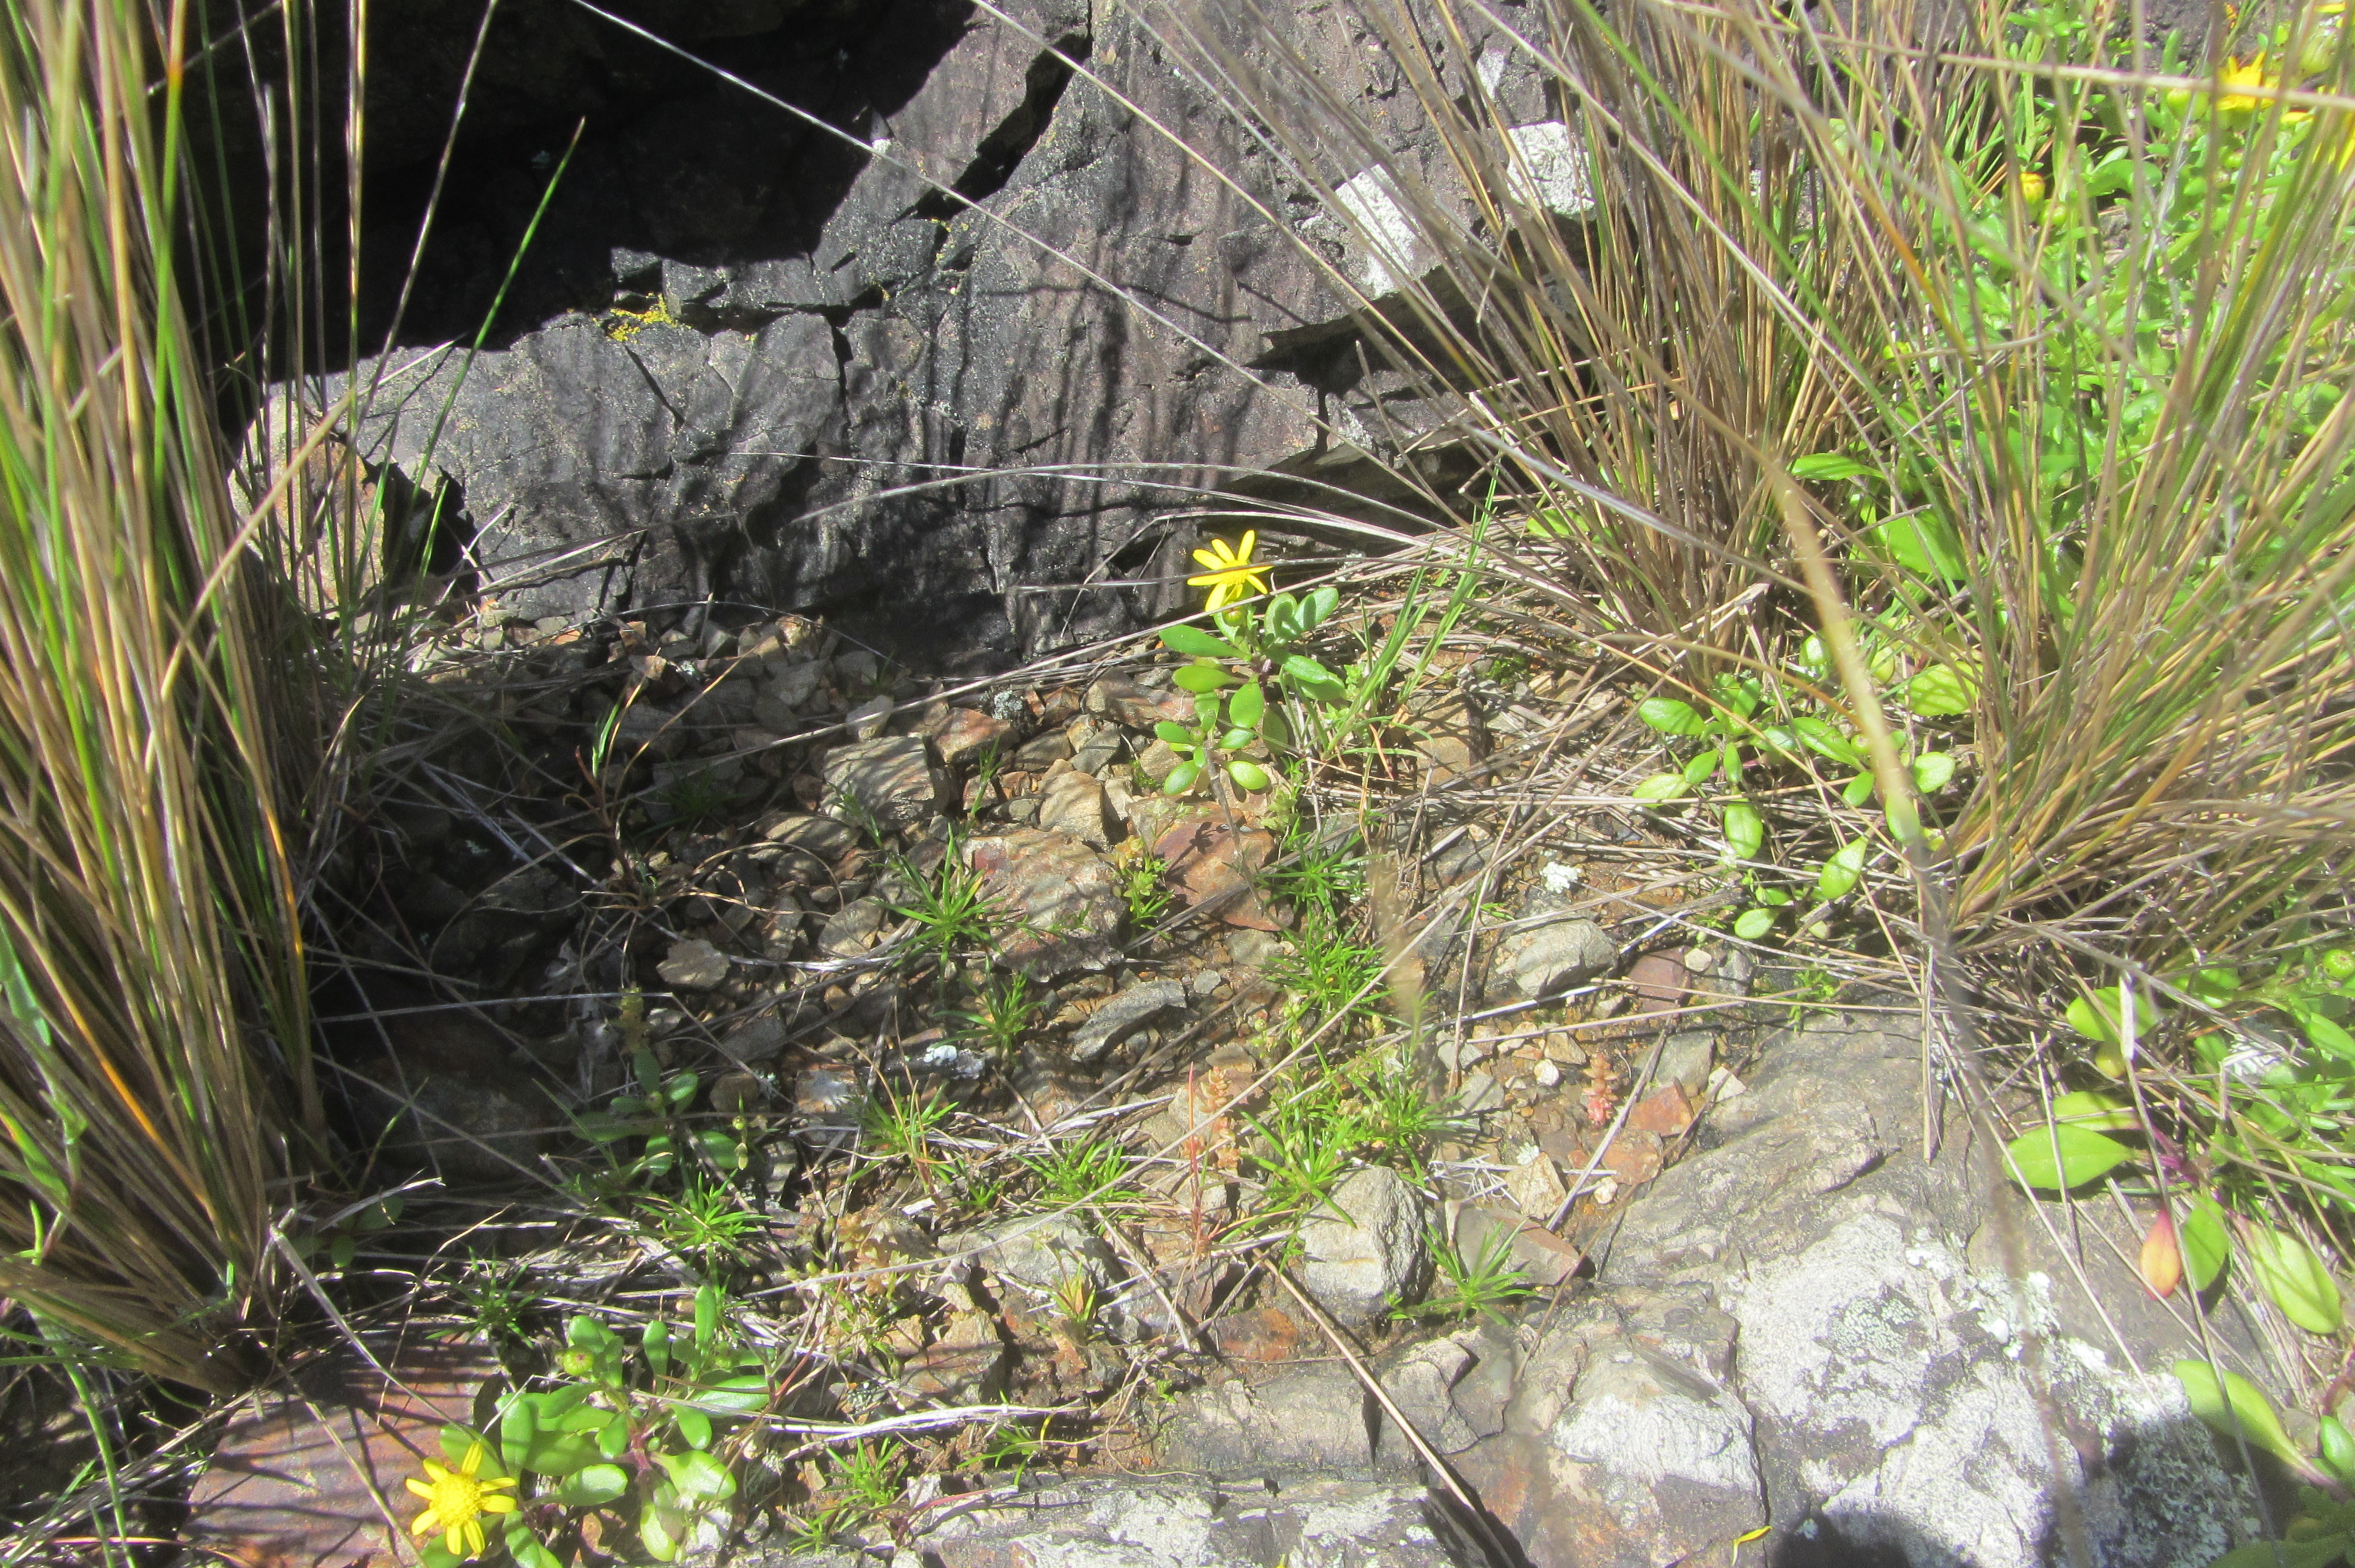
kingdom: Plantae
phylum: Tracheophyta
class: Magnoliopsida
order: Caryophyllales
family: Caryophyllaceae
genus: Sagina
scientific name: Sagina apetala
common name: Annual pearlwort
